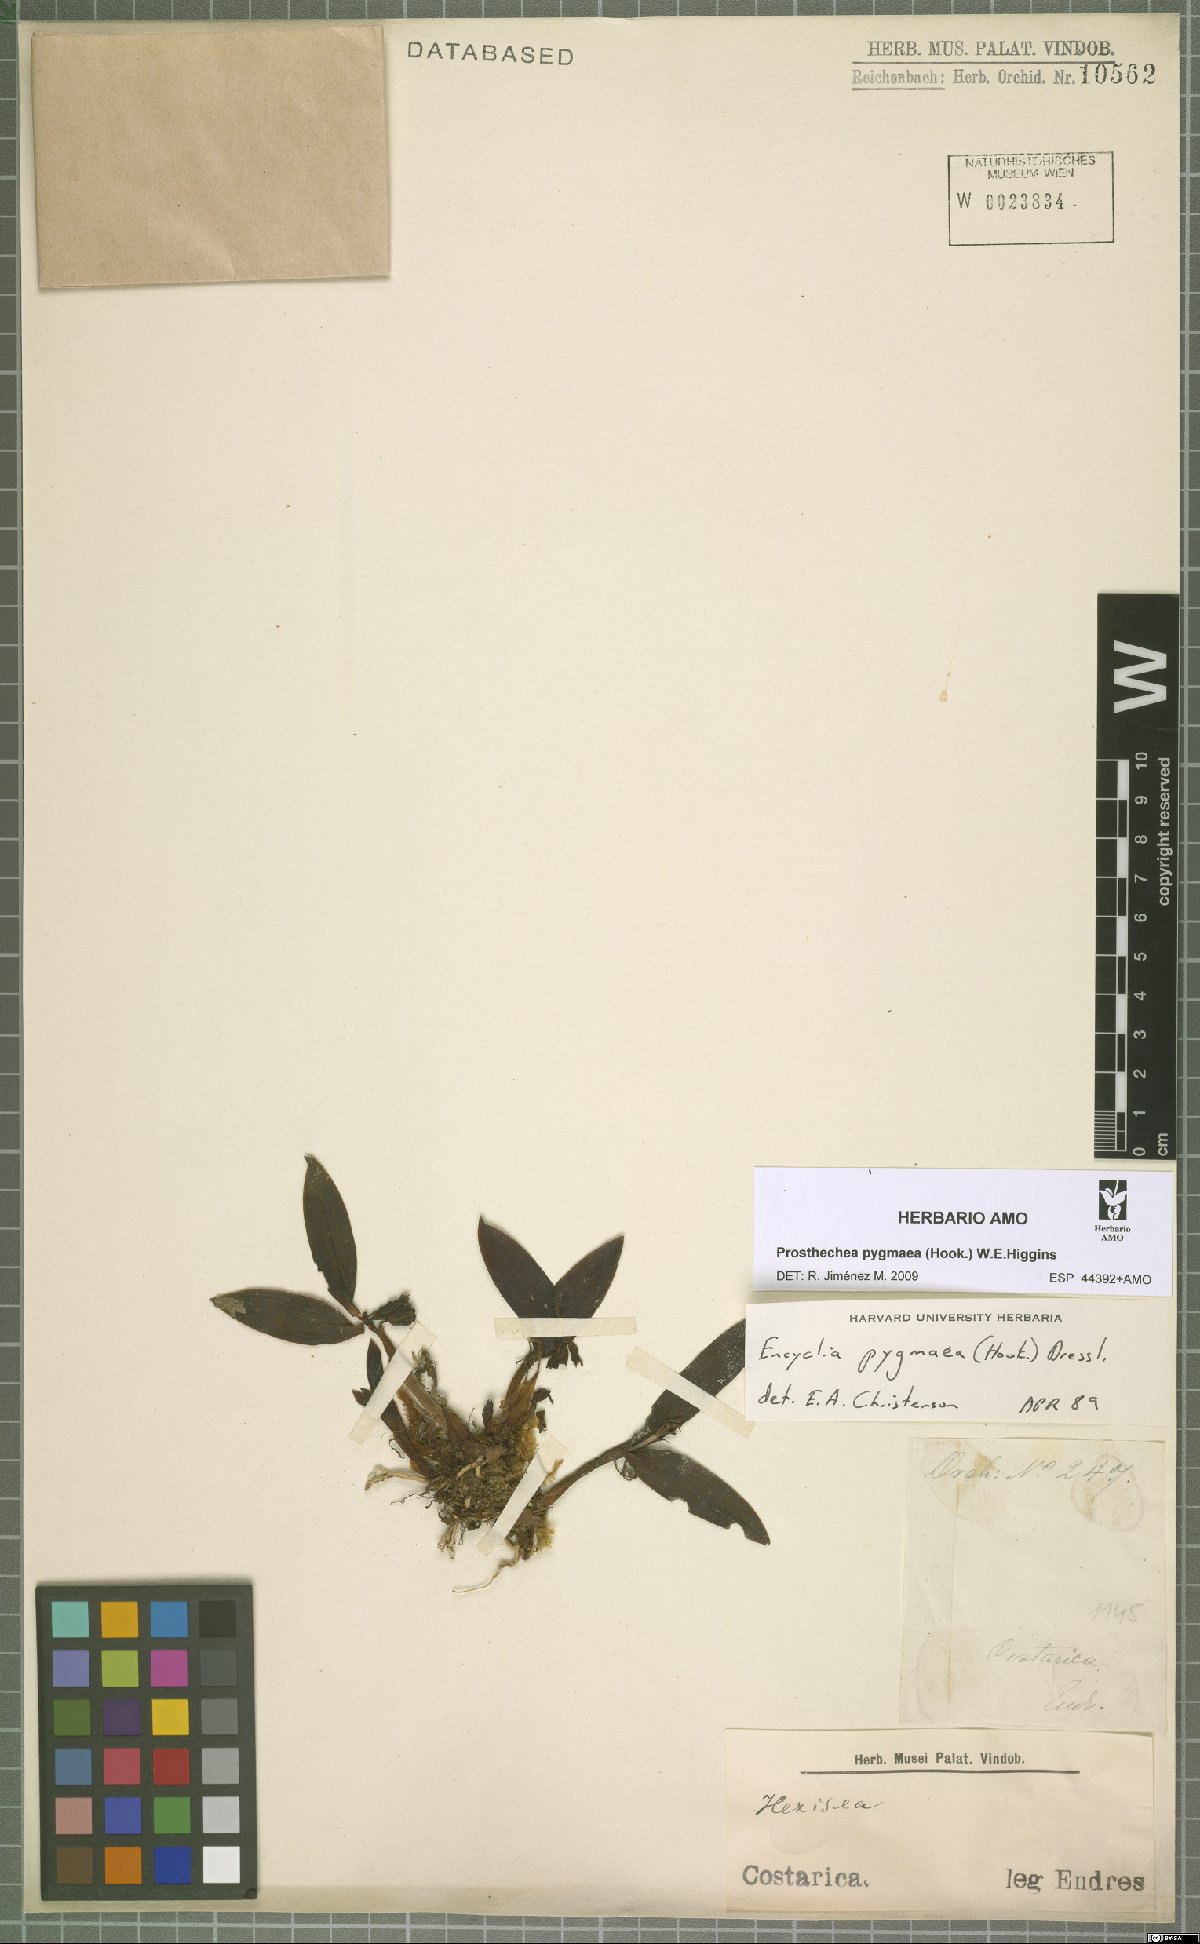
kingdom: Plantae
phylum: Tracheophyta
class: Liliopsida
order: Asparagales
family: Orchidaceae
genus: Prosthechea
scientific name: Prosthechea pygmaea
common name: Dwarf butterfly orchid
